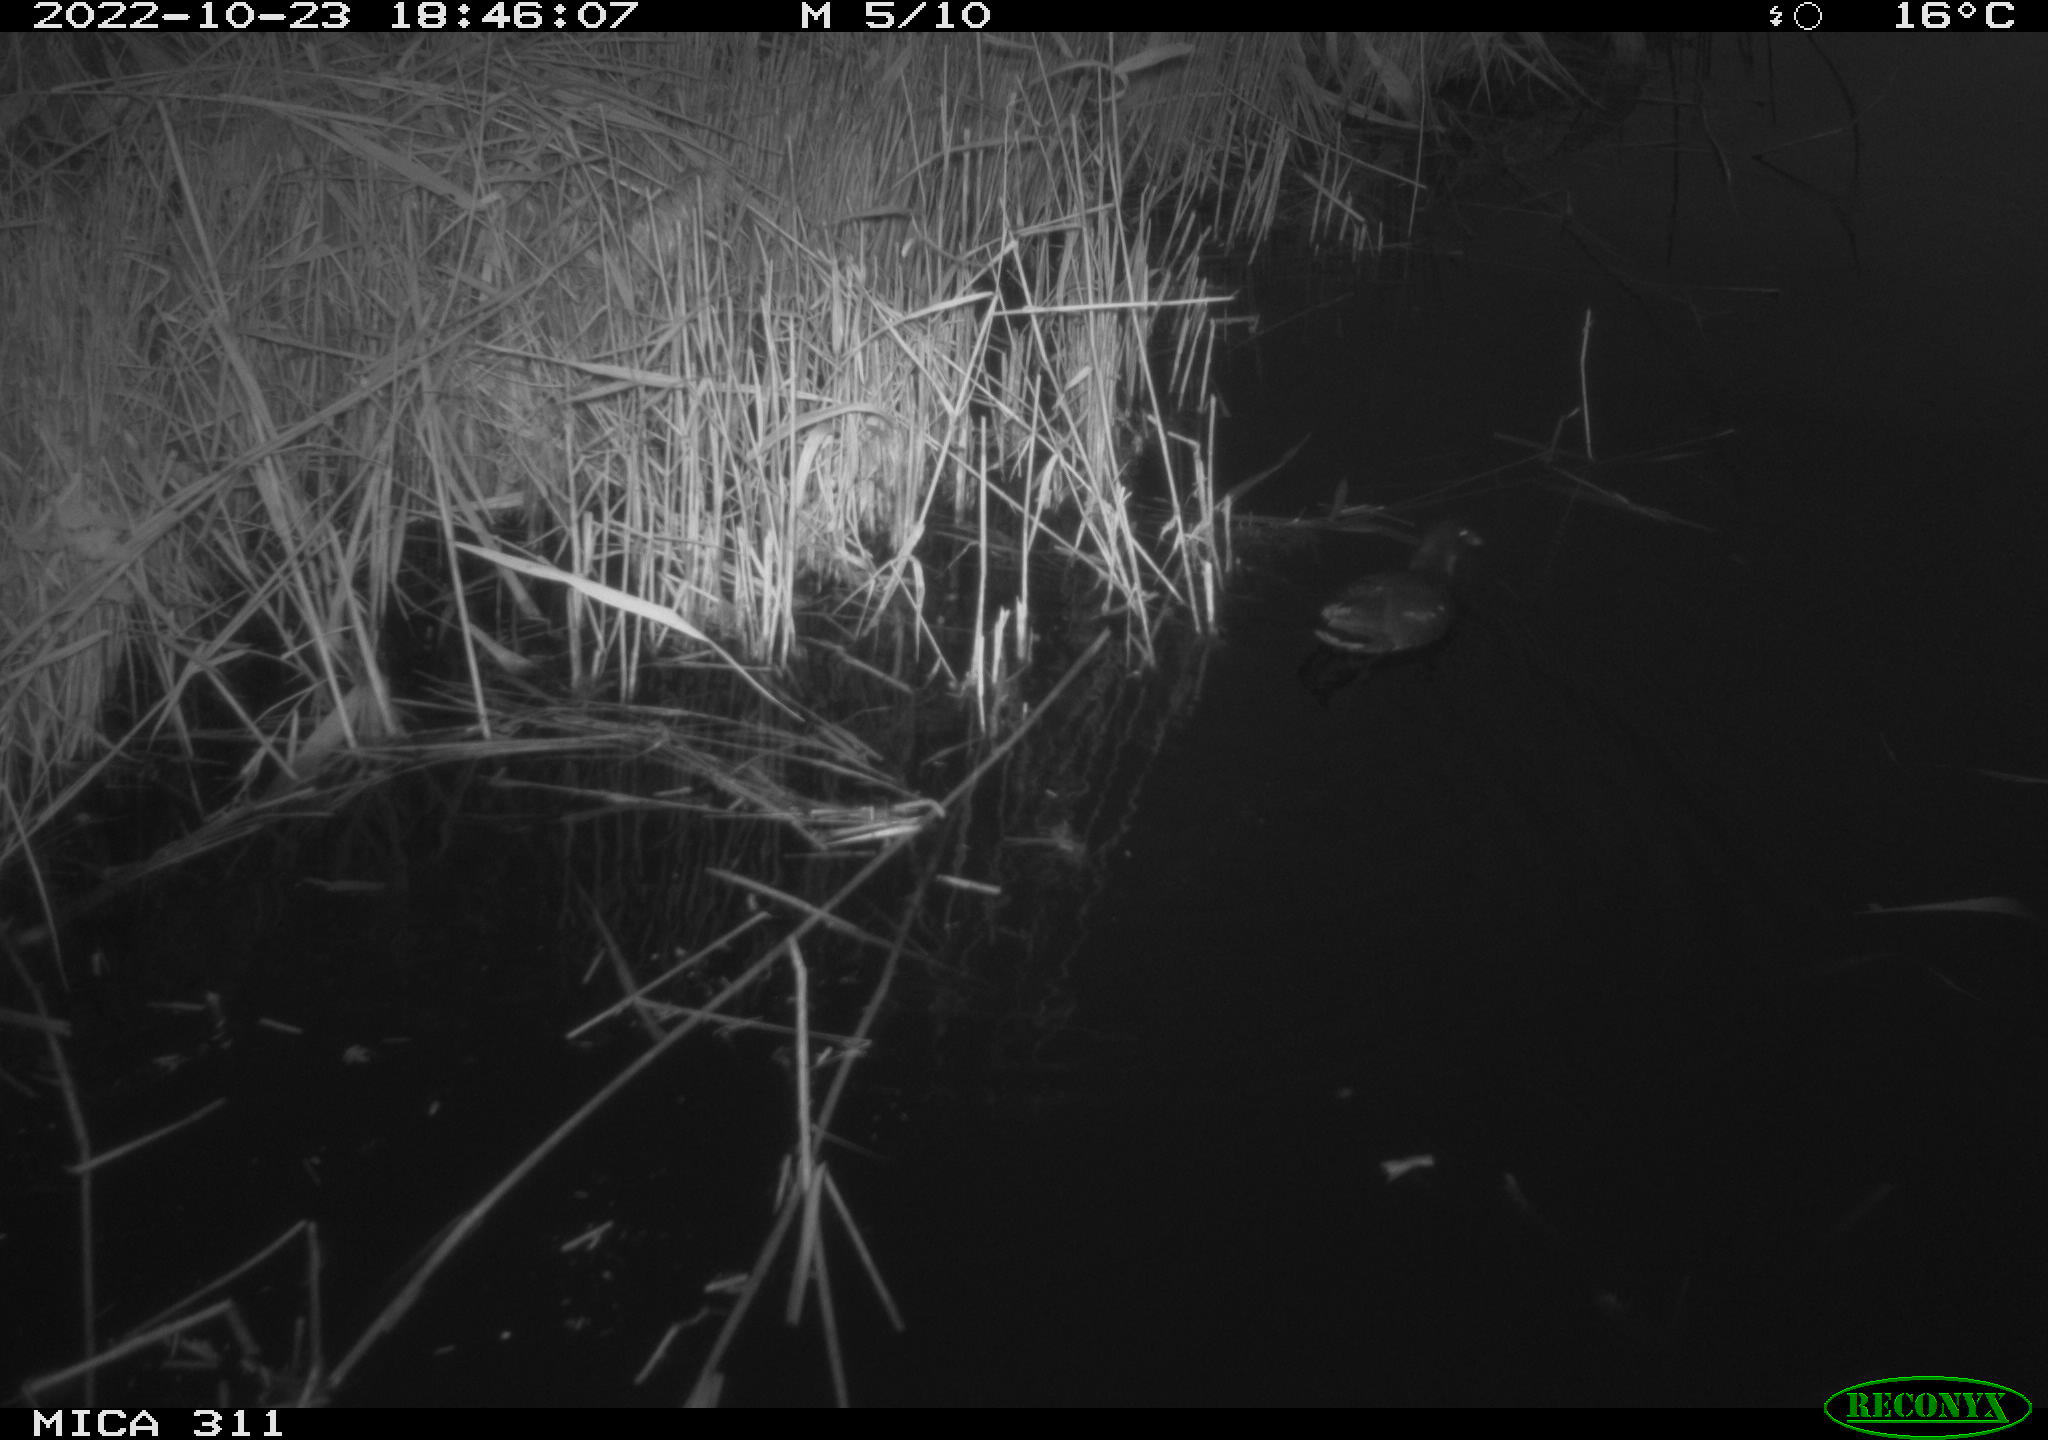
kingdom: Animalia
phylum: Chordata
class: Aves
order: Gruiformes
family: Rallidae
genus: Gallinula
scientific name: Gallinula chloropus
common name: Common moorhen
